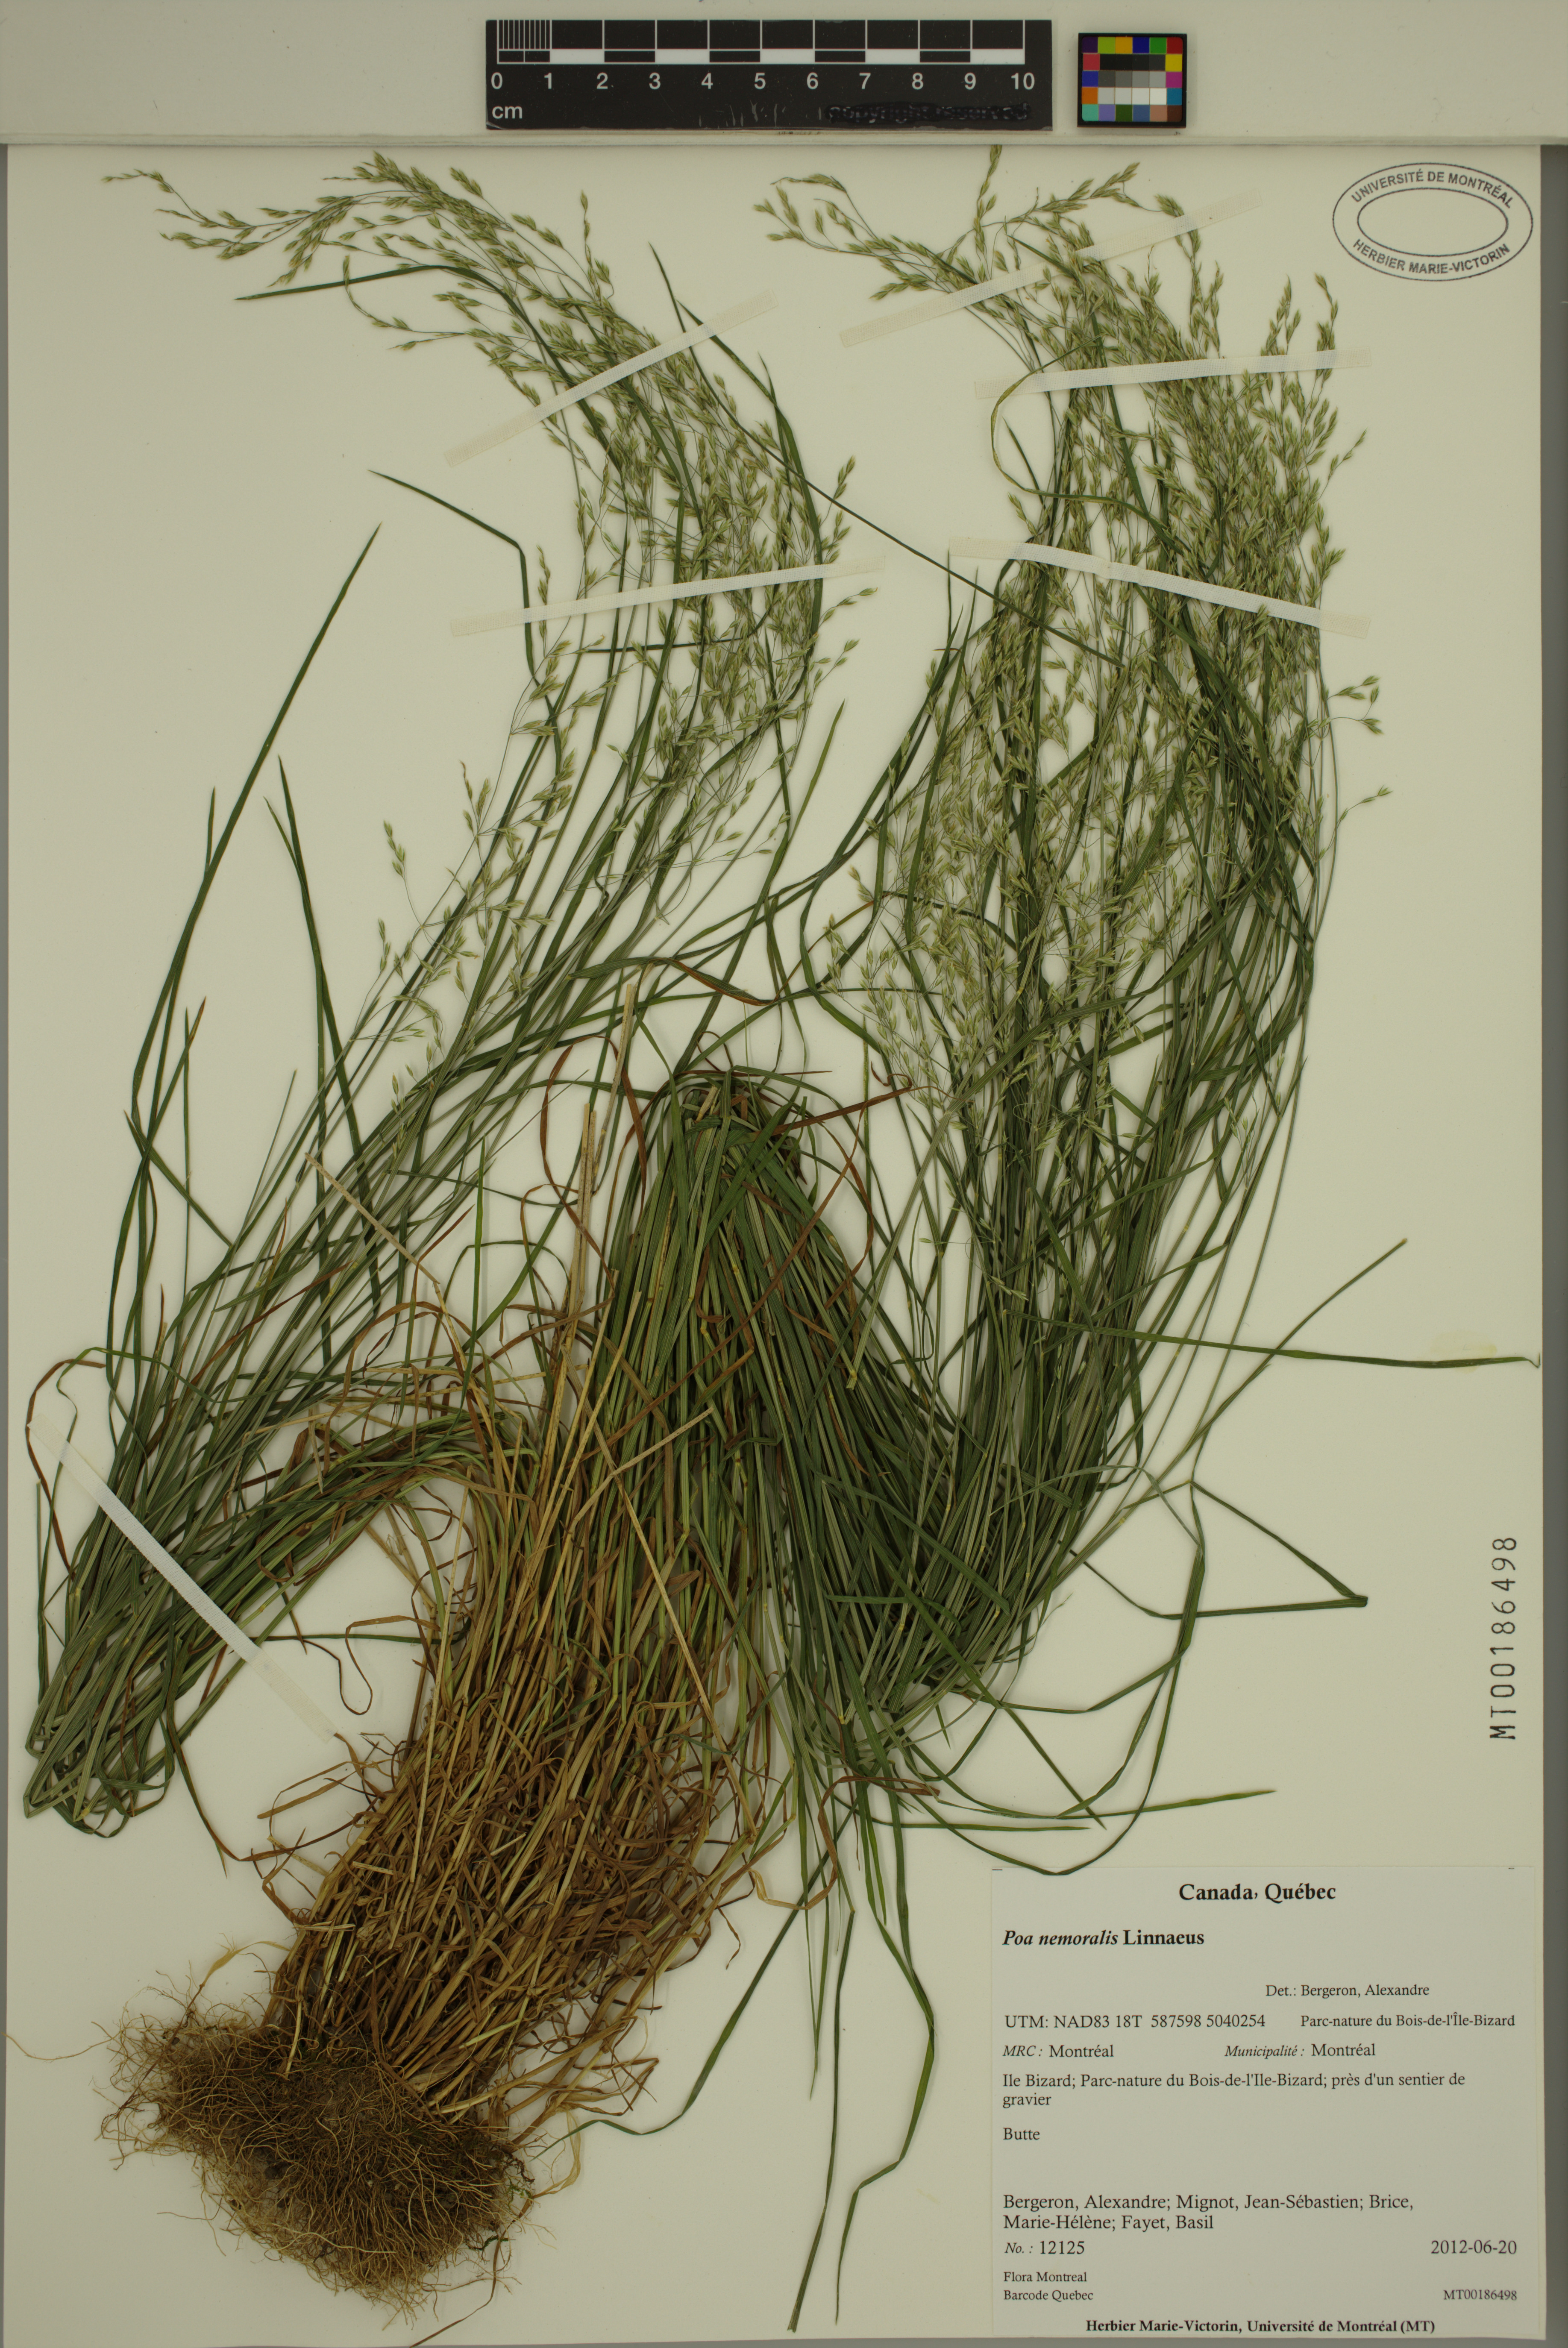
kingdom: Plantae
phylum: Tracheophyta
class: Liliopsida
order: Poales
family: Poaceae
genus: Poa
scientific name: Poa nemoralis
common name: Wood bluegrass
